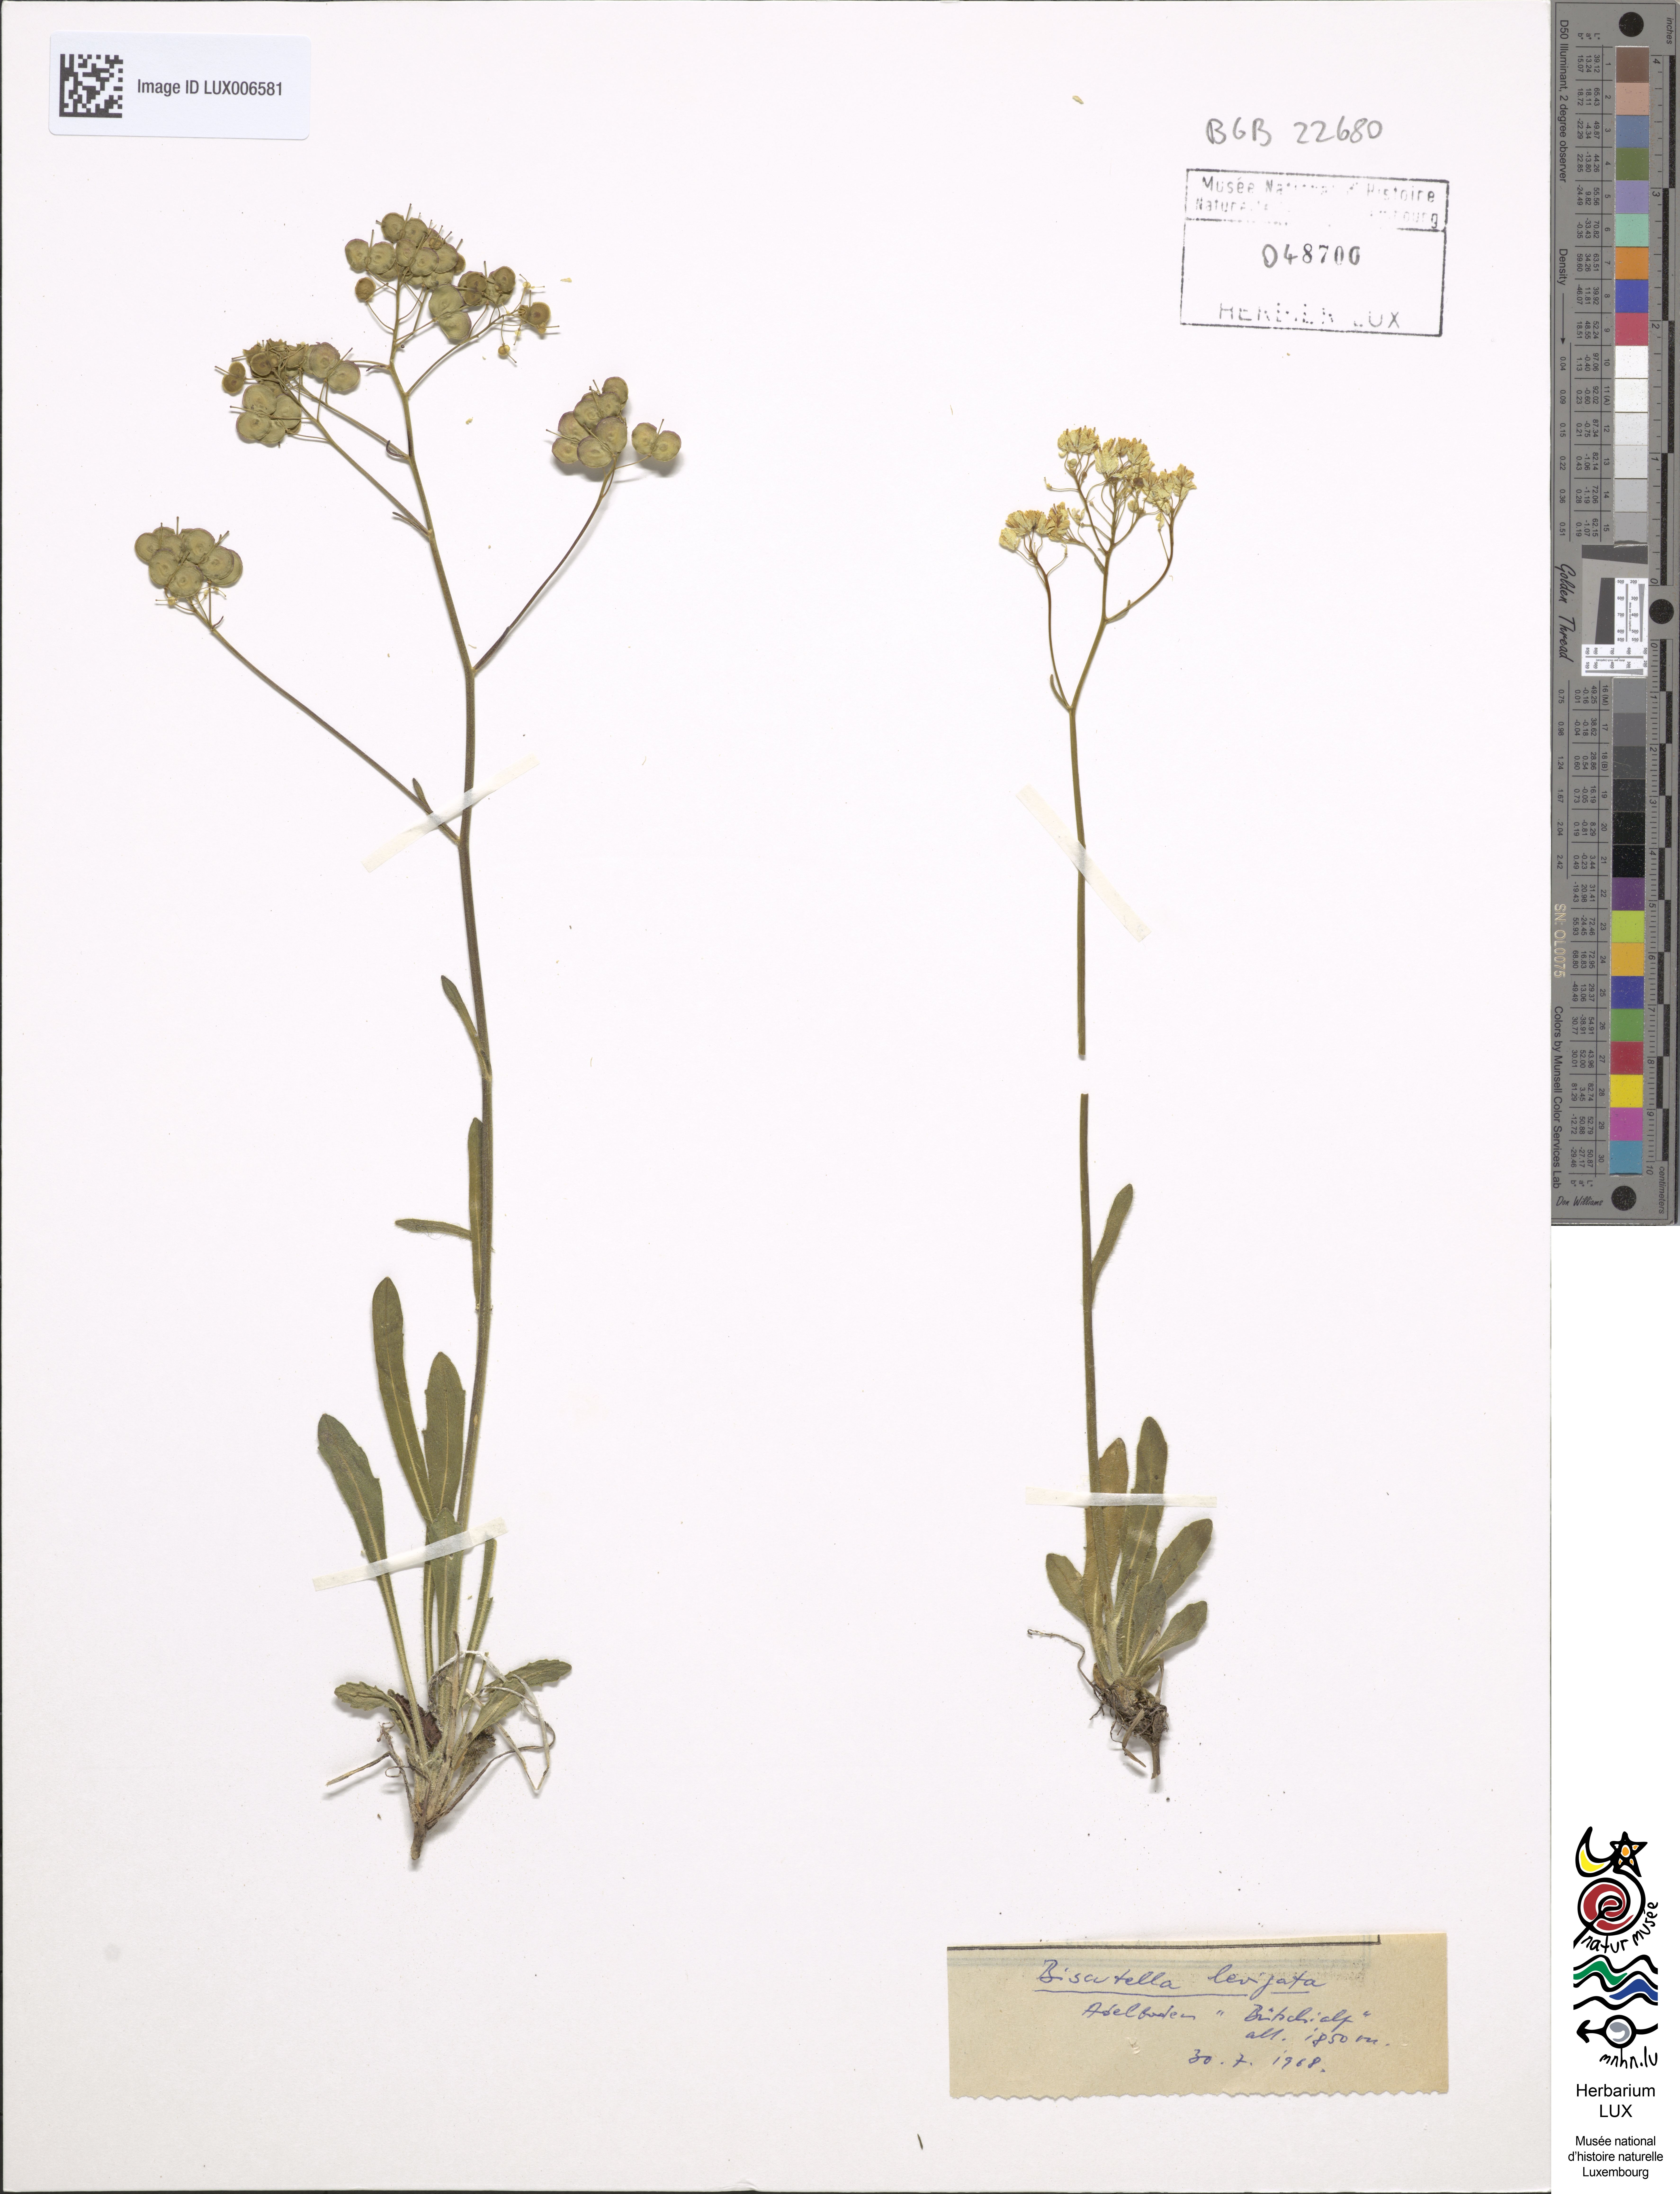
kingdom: Plantae
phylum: Tracheophyta
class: Magnoliopsida
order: Brassicales
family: Brassicaceae
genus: Biscutella
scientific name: Biscutella laevigata
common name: Buckler mustard
